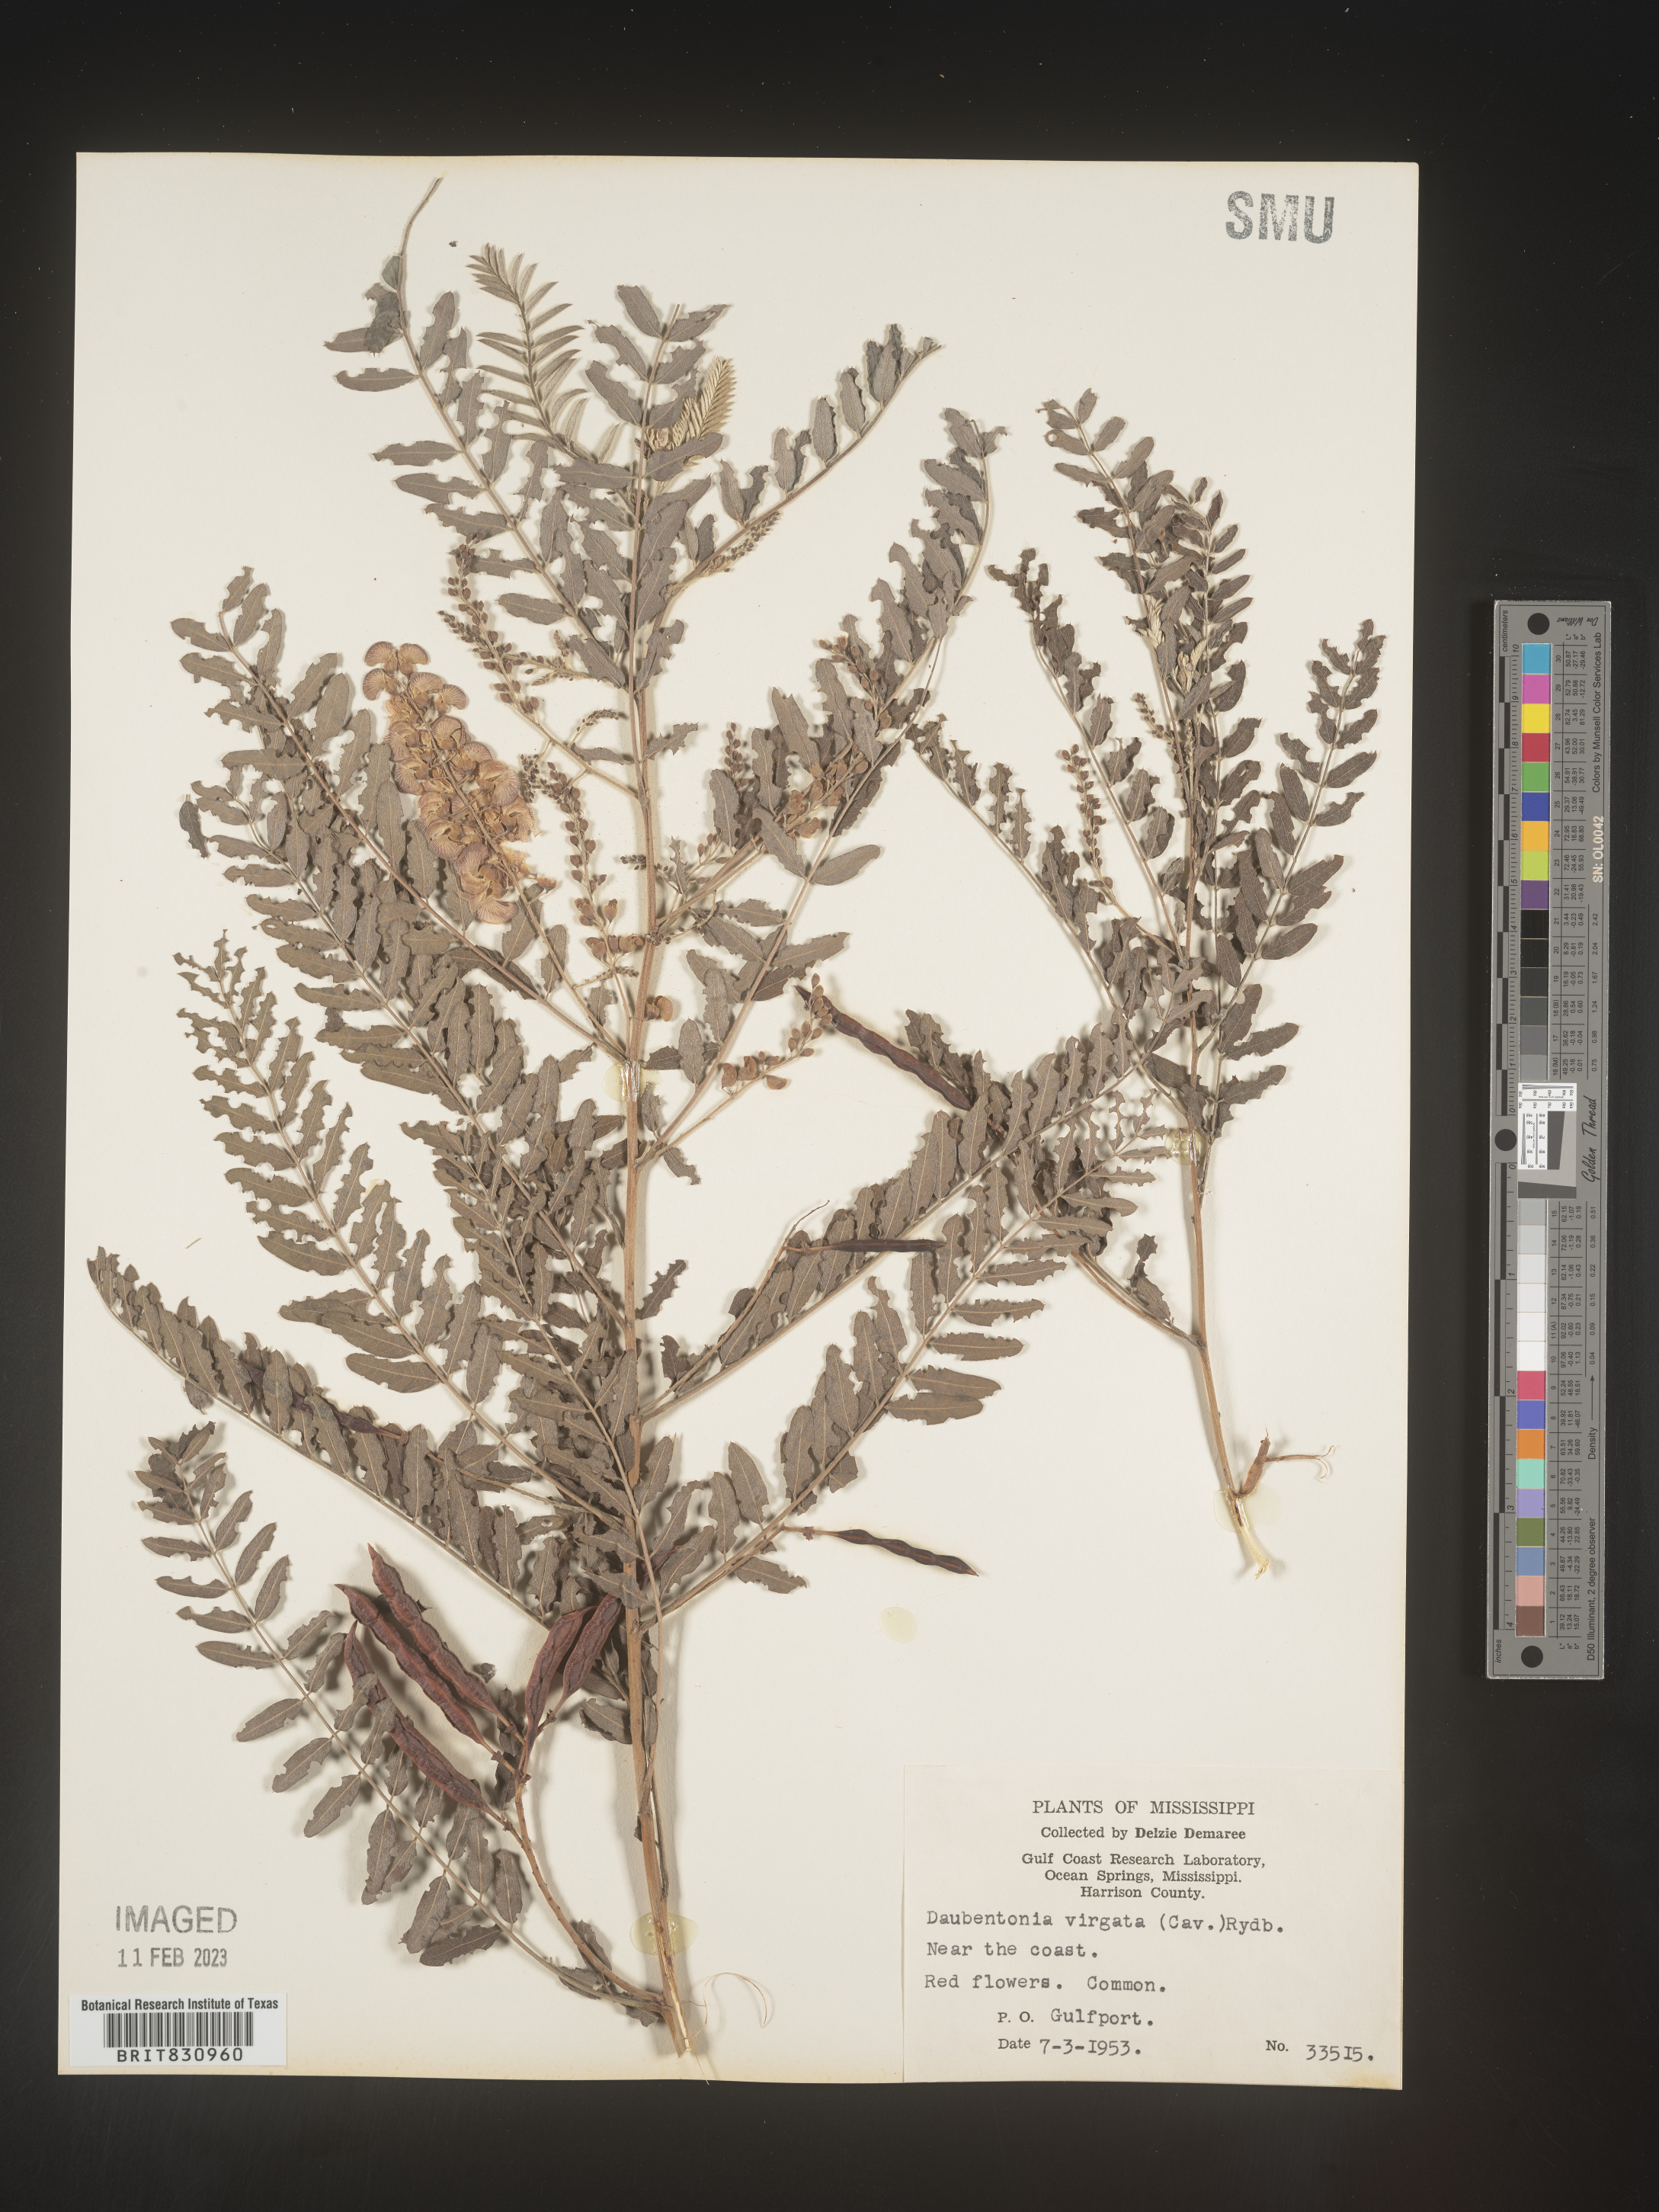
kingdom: Plantae
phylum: Tracheophyta
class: Magnoliopsida
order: Fabales
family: Fabaceae
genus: Sesbania
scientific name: Sesbania
